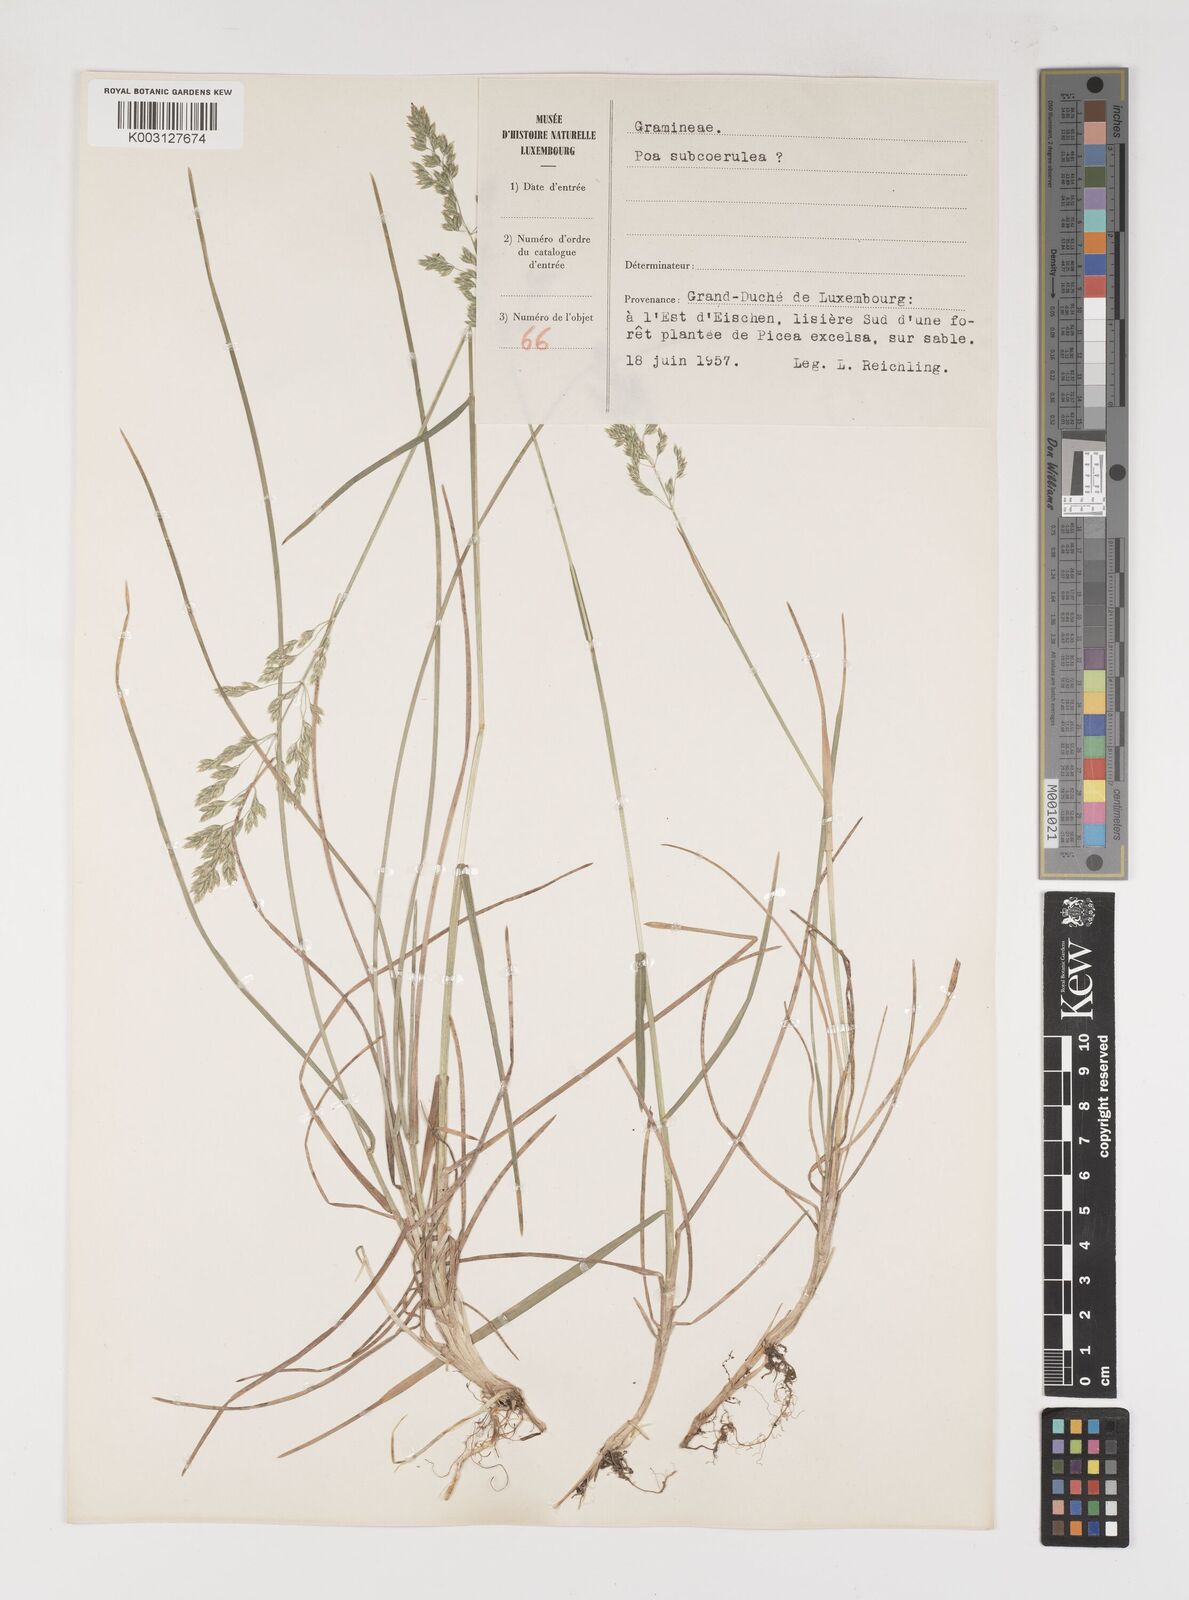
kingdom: Plantae
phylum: Tracheophyta
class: Liliopsida
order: Poales
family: Poaceae
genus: Poa
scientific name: Poa
